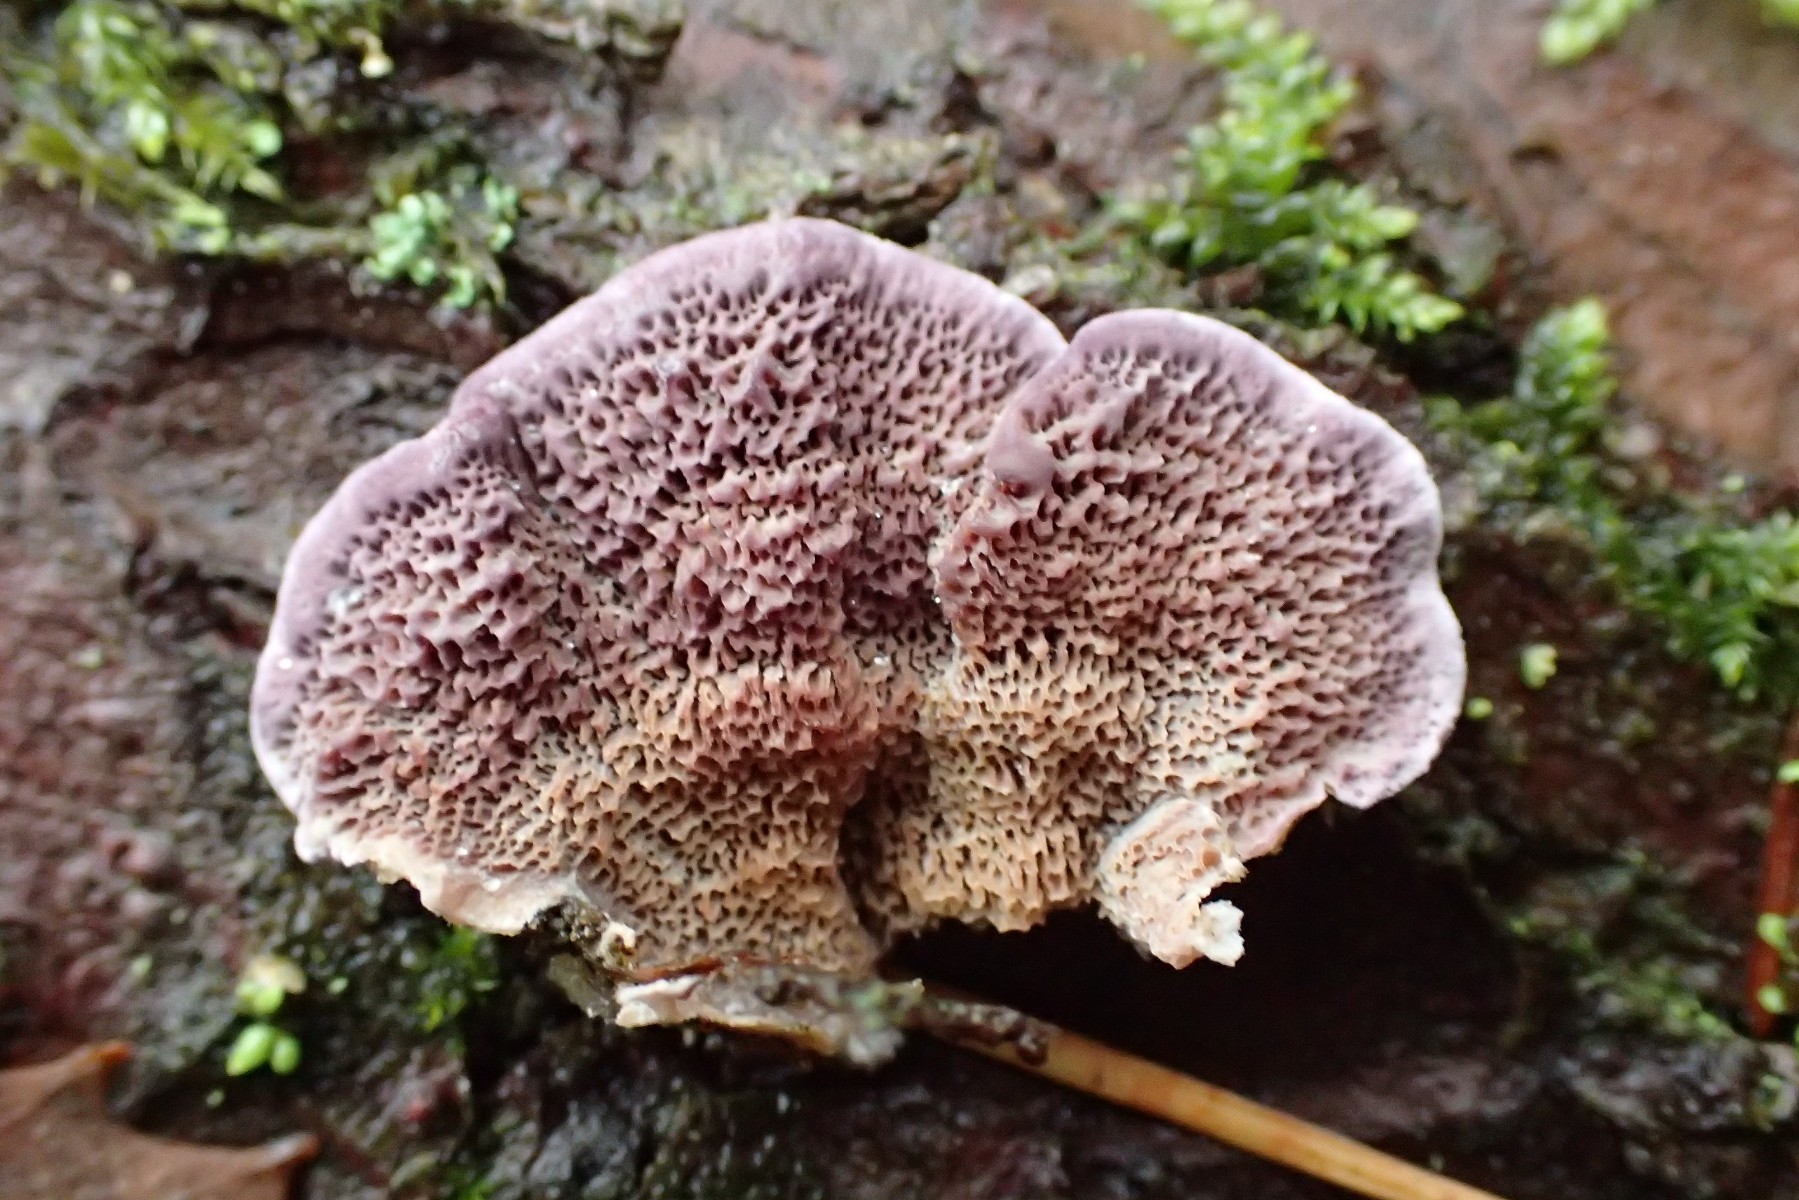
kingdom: Fungi
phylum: Basidiomycota
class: Agaricomycetes
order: Hymenochaetales
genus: Trichaptum
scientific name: Trichaptum abietinum
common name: almindelig violporesvamp
